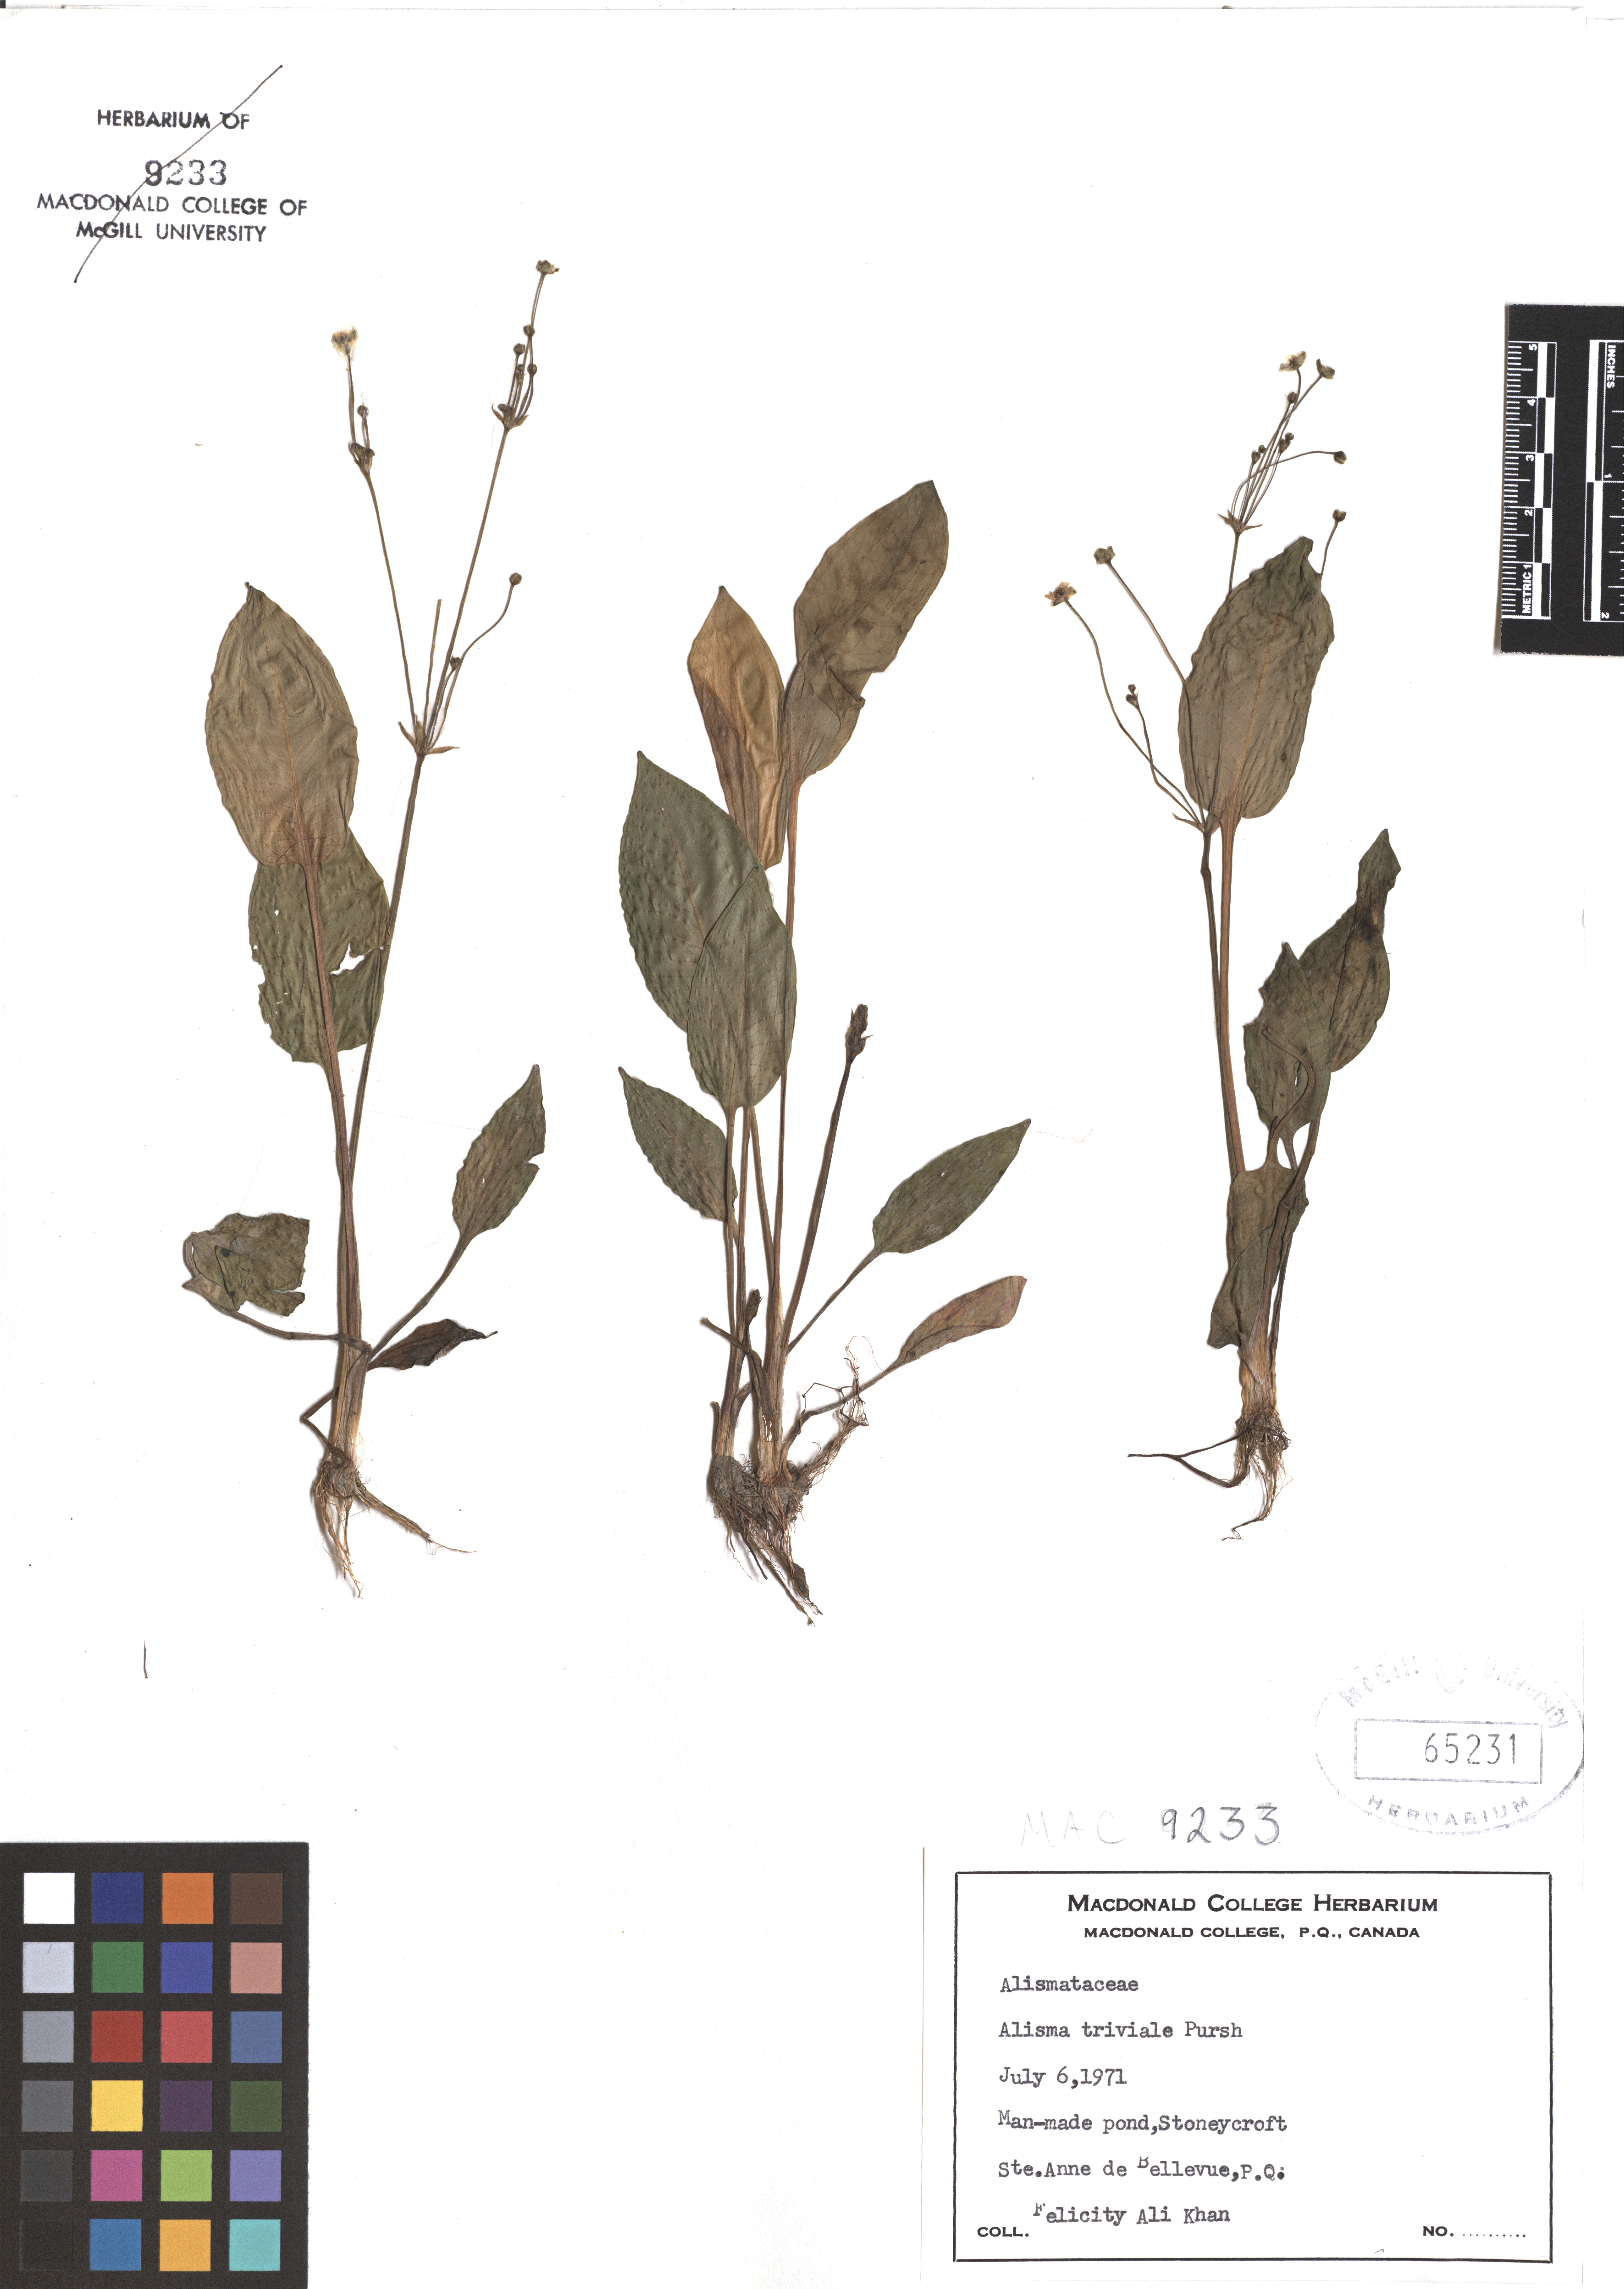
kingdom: Plantae
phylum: Tracheophyta
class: Liliopsida
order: Alismatales
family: Alismataceae
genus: Alisma
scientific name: Alisma triviale
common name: Northern water-plantain
